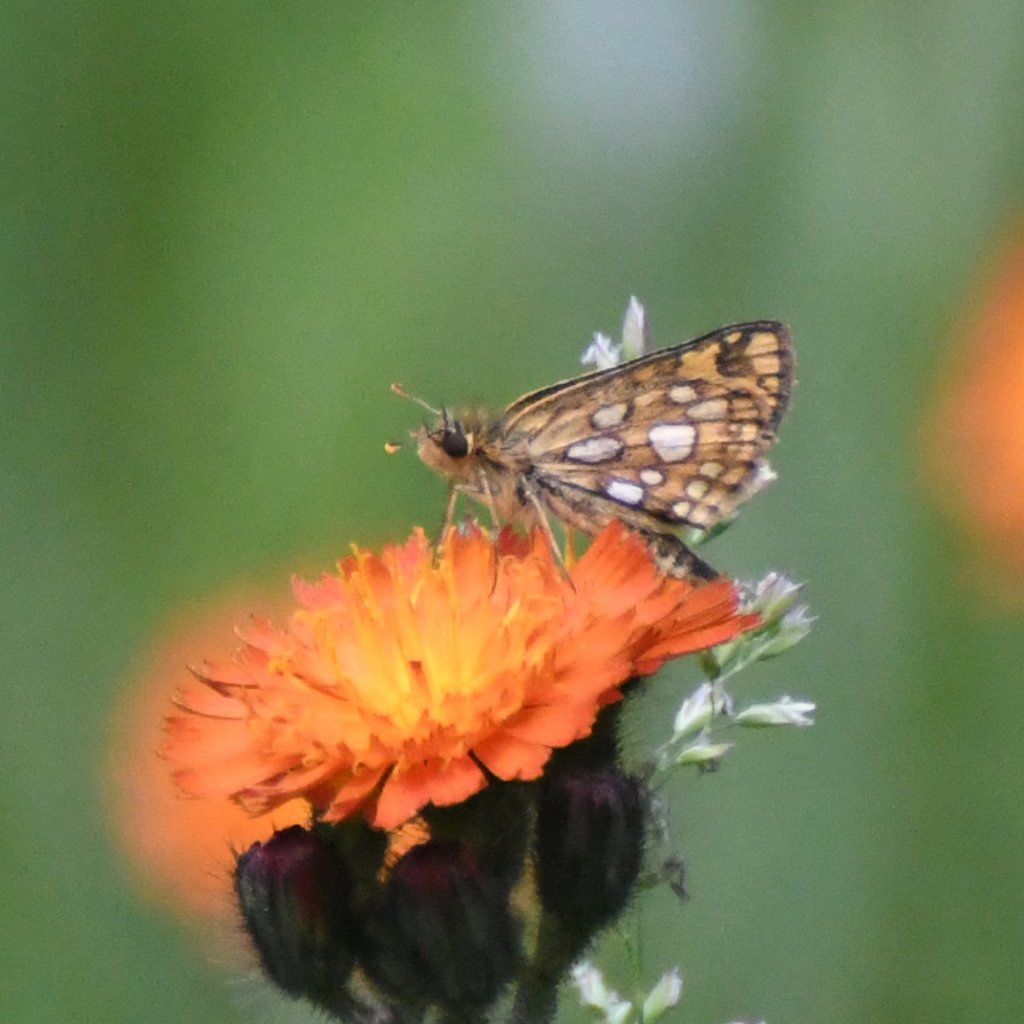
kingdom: Animalia
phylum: Arthropoda
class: Insecta
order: Lepidoptera
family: Hesperiidae
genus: Carterocephalus
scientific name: Carterocephalus palaemon
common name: Chequered Skipper
